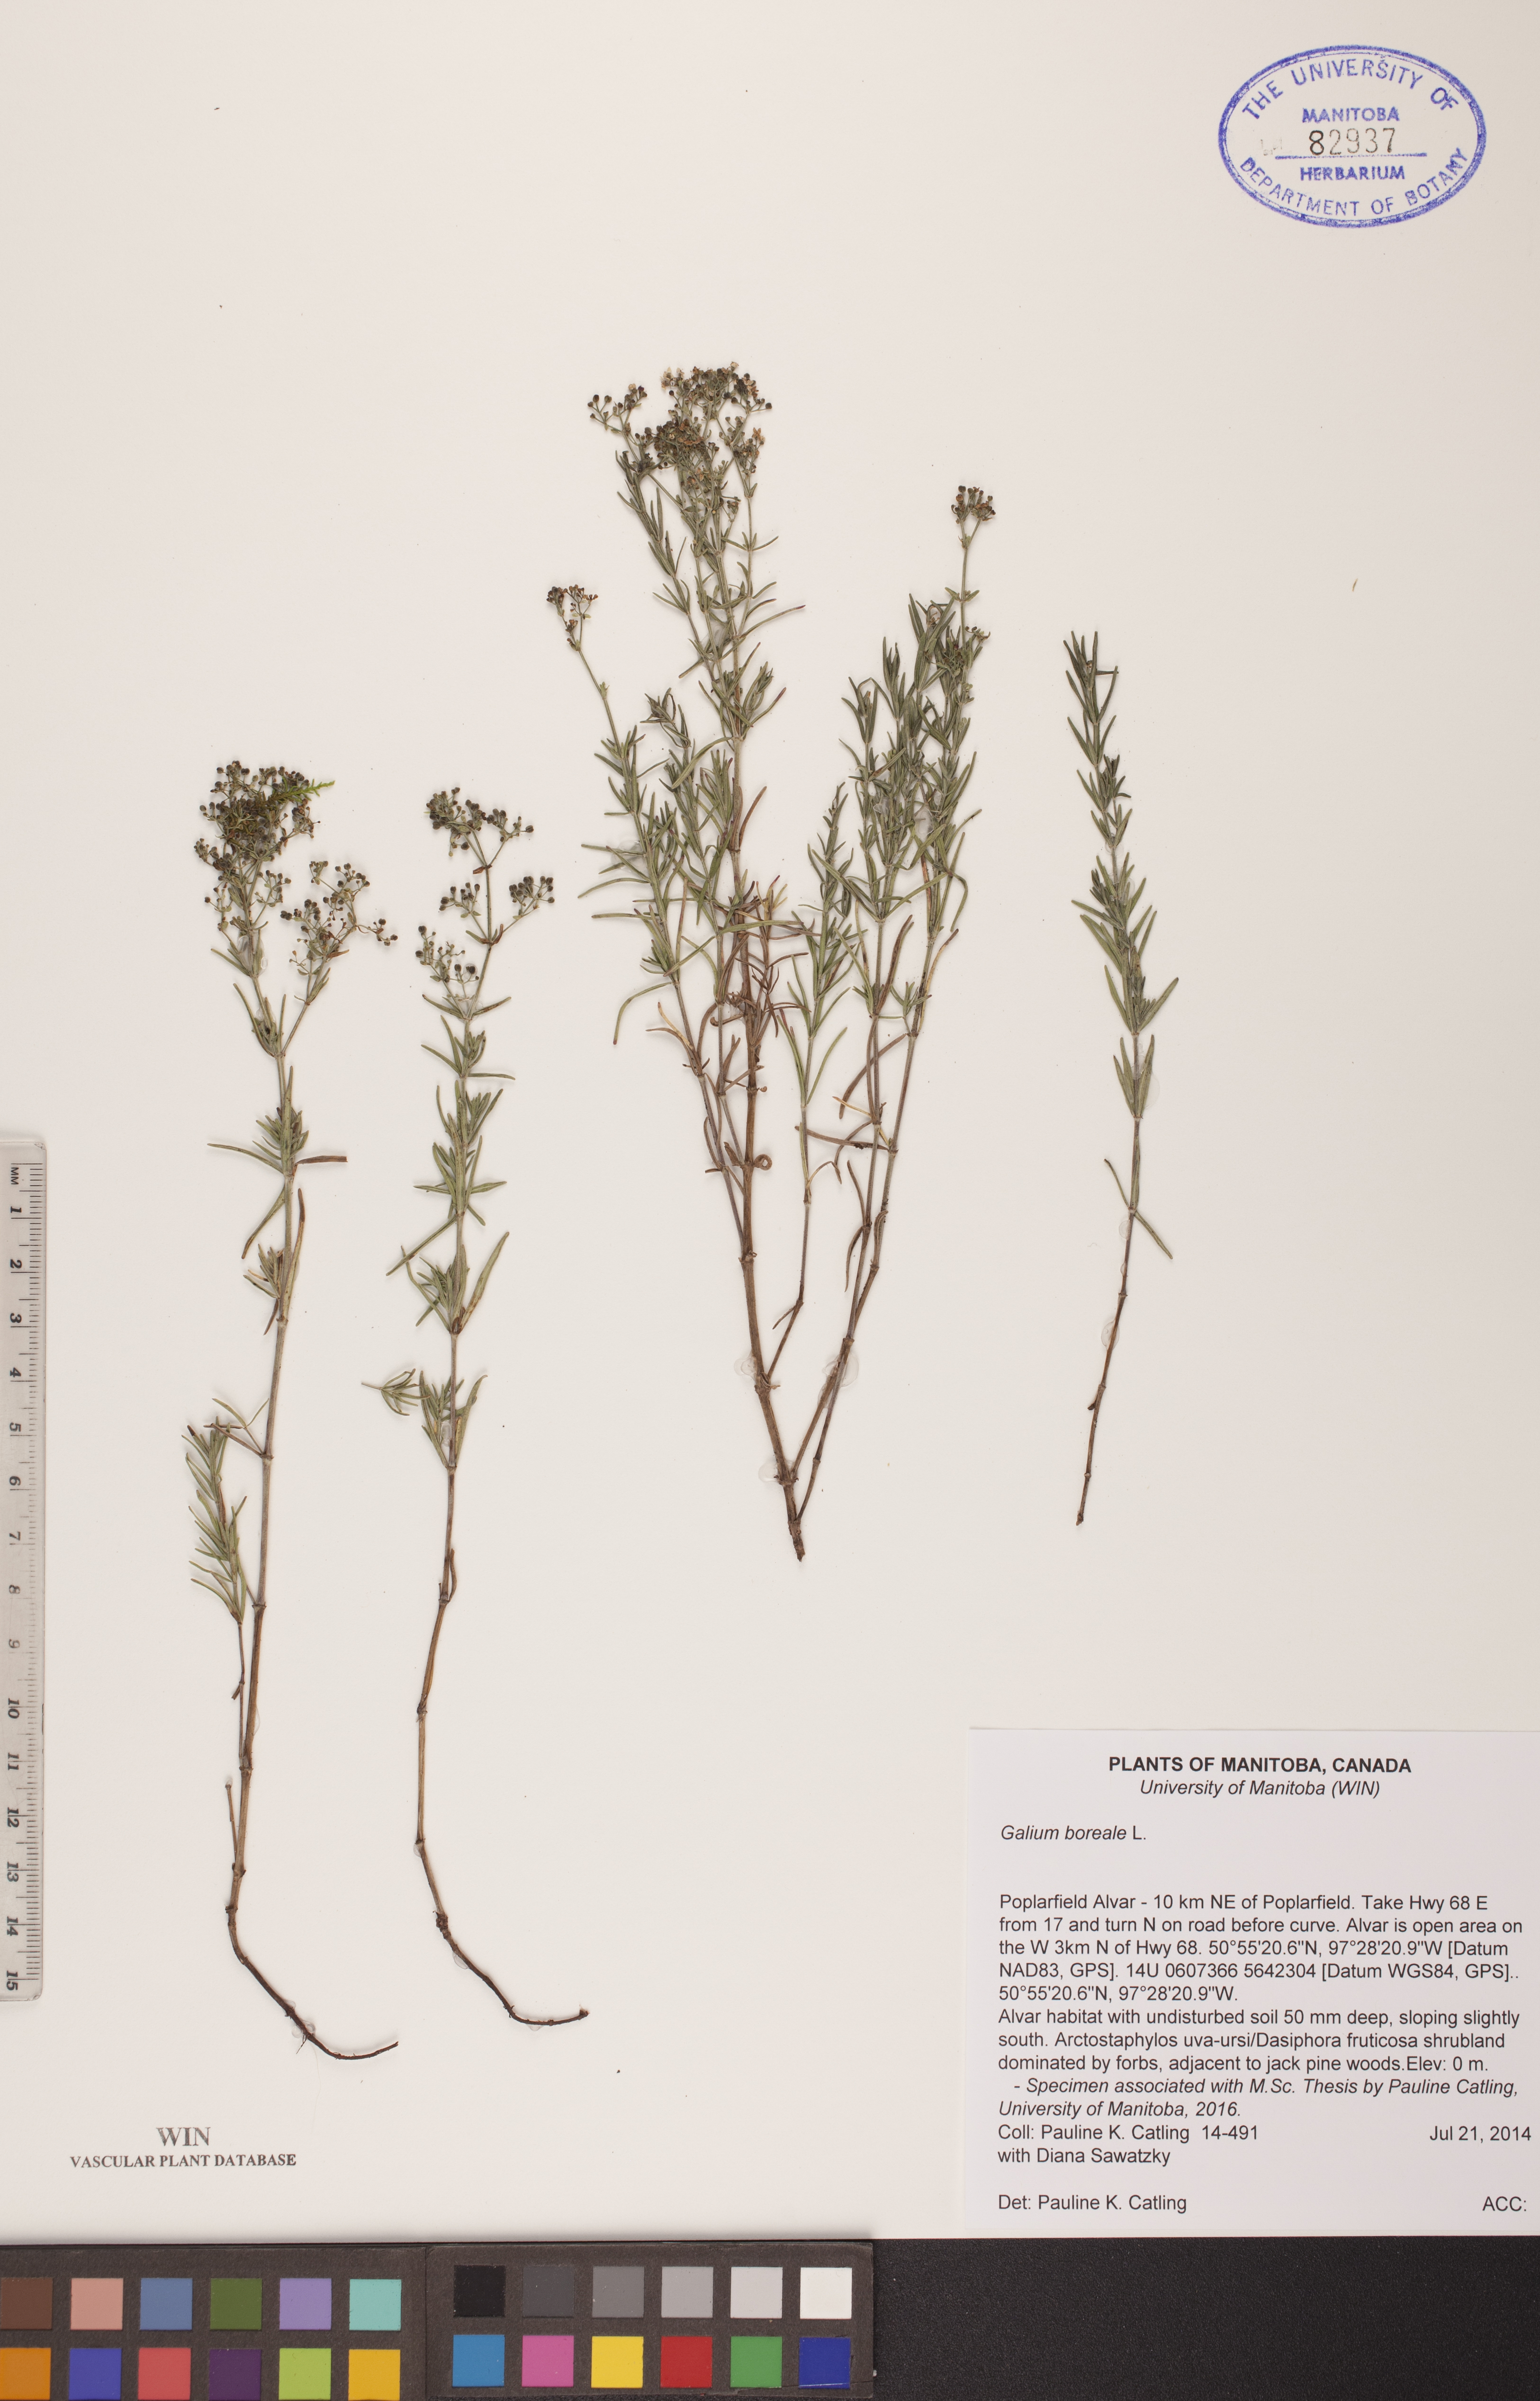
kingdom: Plantae
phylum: Tracheophyta
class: Magnoliopsida
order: Gentianales
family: Rubiaceae
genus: Galium
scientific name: Galium boreale
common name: Northern bedstraw
